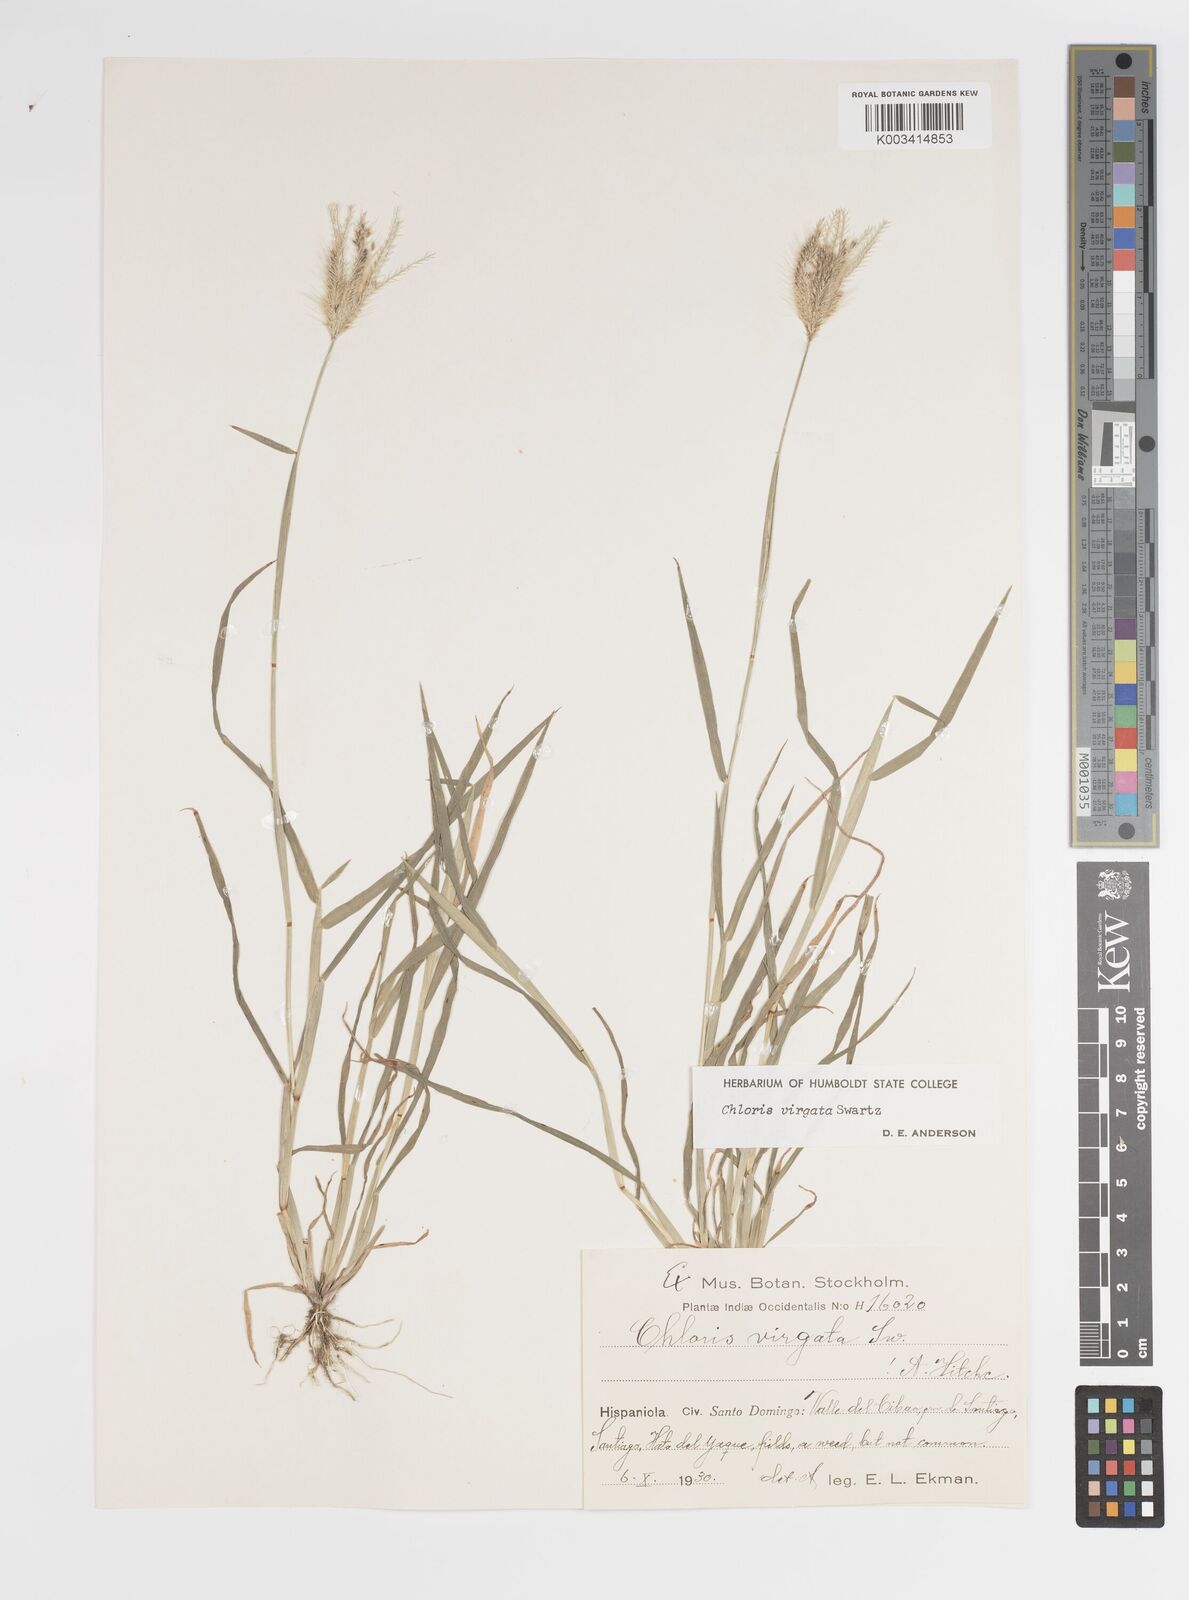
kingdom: Plantae
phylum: Tracheophyta
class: Liliopsida
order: Poales
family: Poaceae
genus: Chloris
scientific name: Chloris virgata
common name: Feathery rhodes-grass
